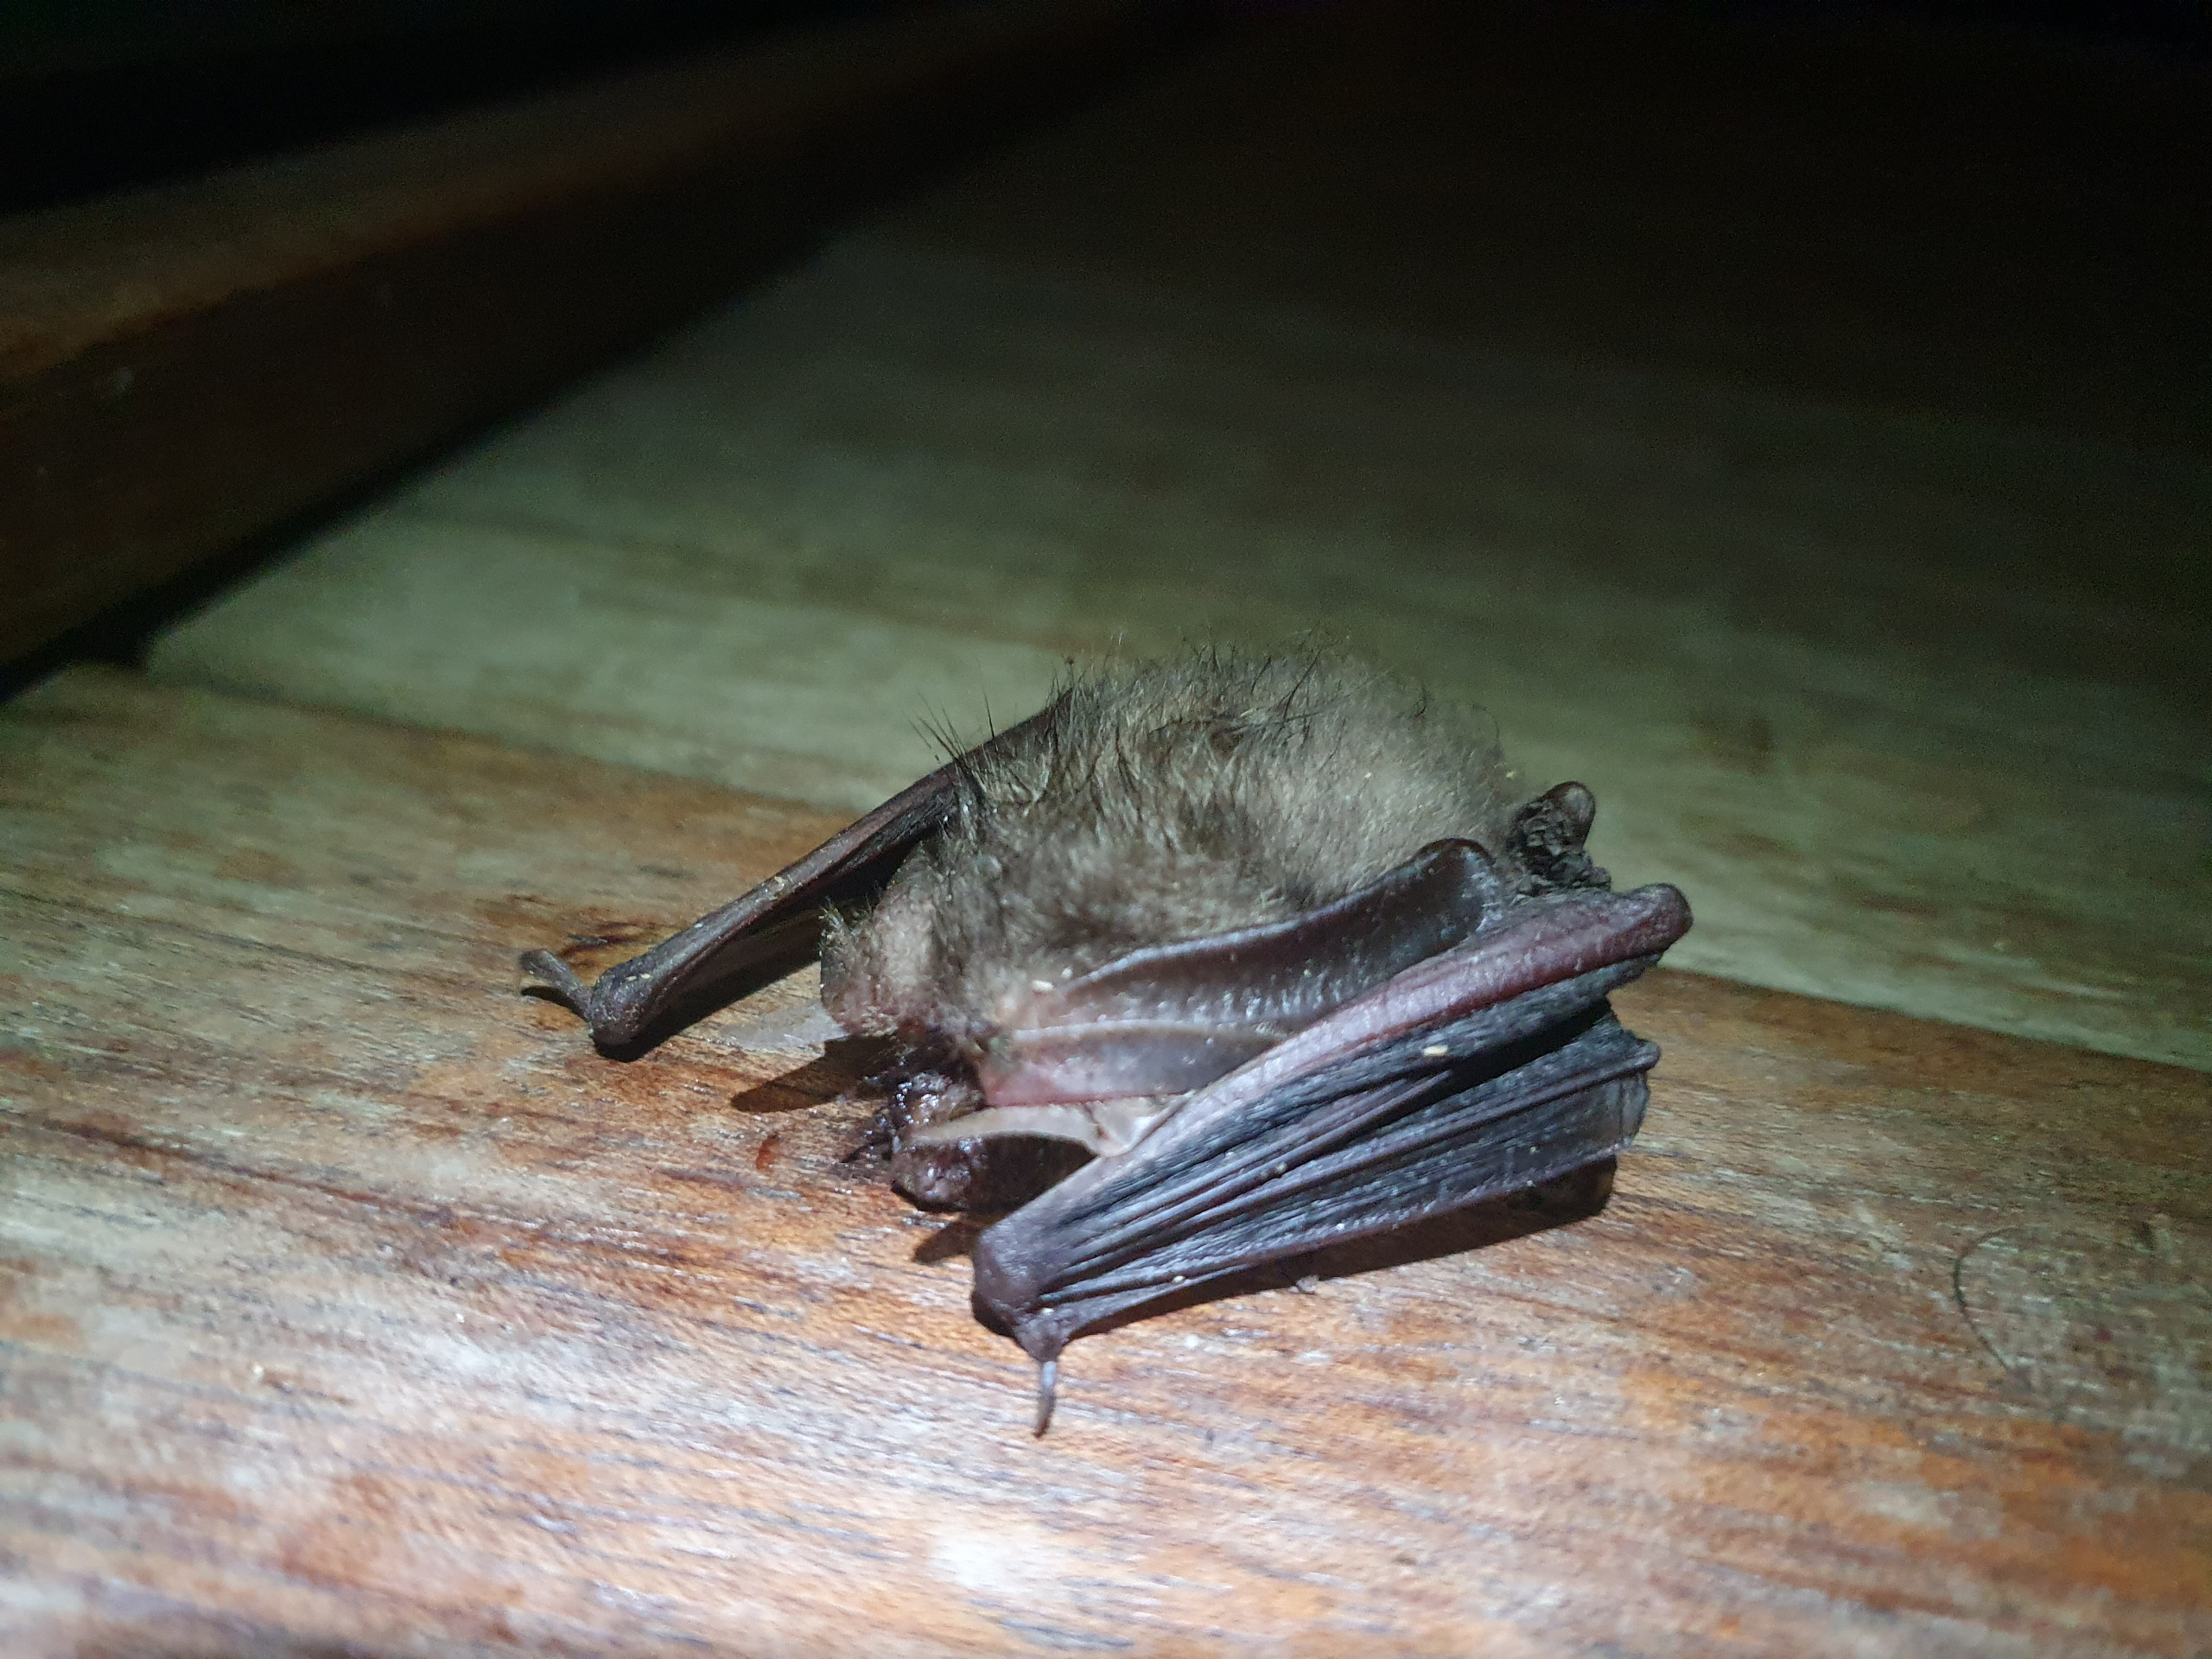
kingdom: Animalia
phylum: Chordata
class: Mammalia
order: Chiroptera
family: Vespertilionidae
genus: Plecotus
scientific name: Plecotus auritus
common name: Brun langøre
